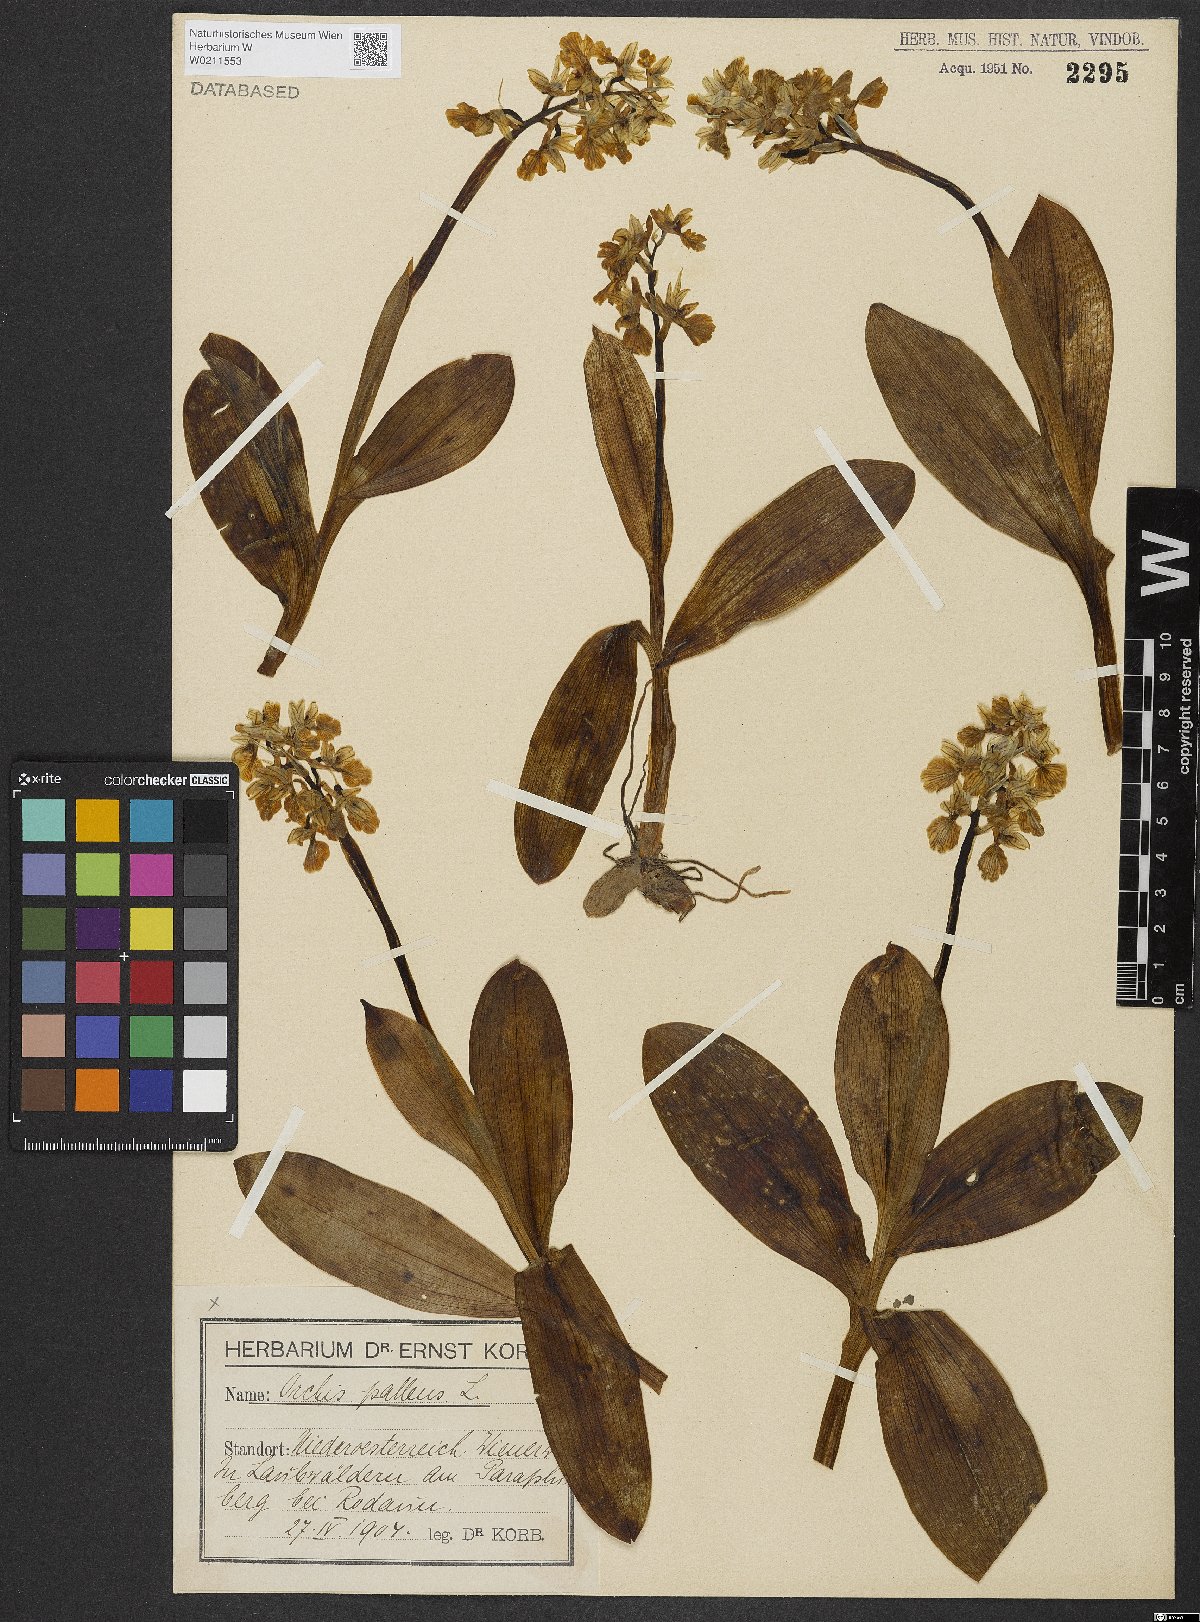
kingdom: Plantae
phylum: Tracheophyta
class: Liliopsida
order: Asparagales
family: Orchidaceae
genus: Orchis
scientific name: Orchis pallens
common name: Pale-flowered orchid
